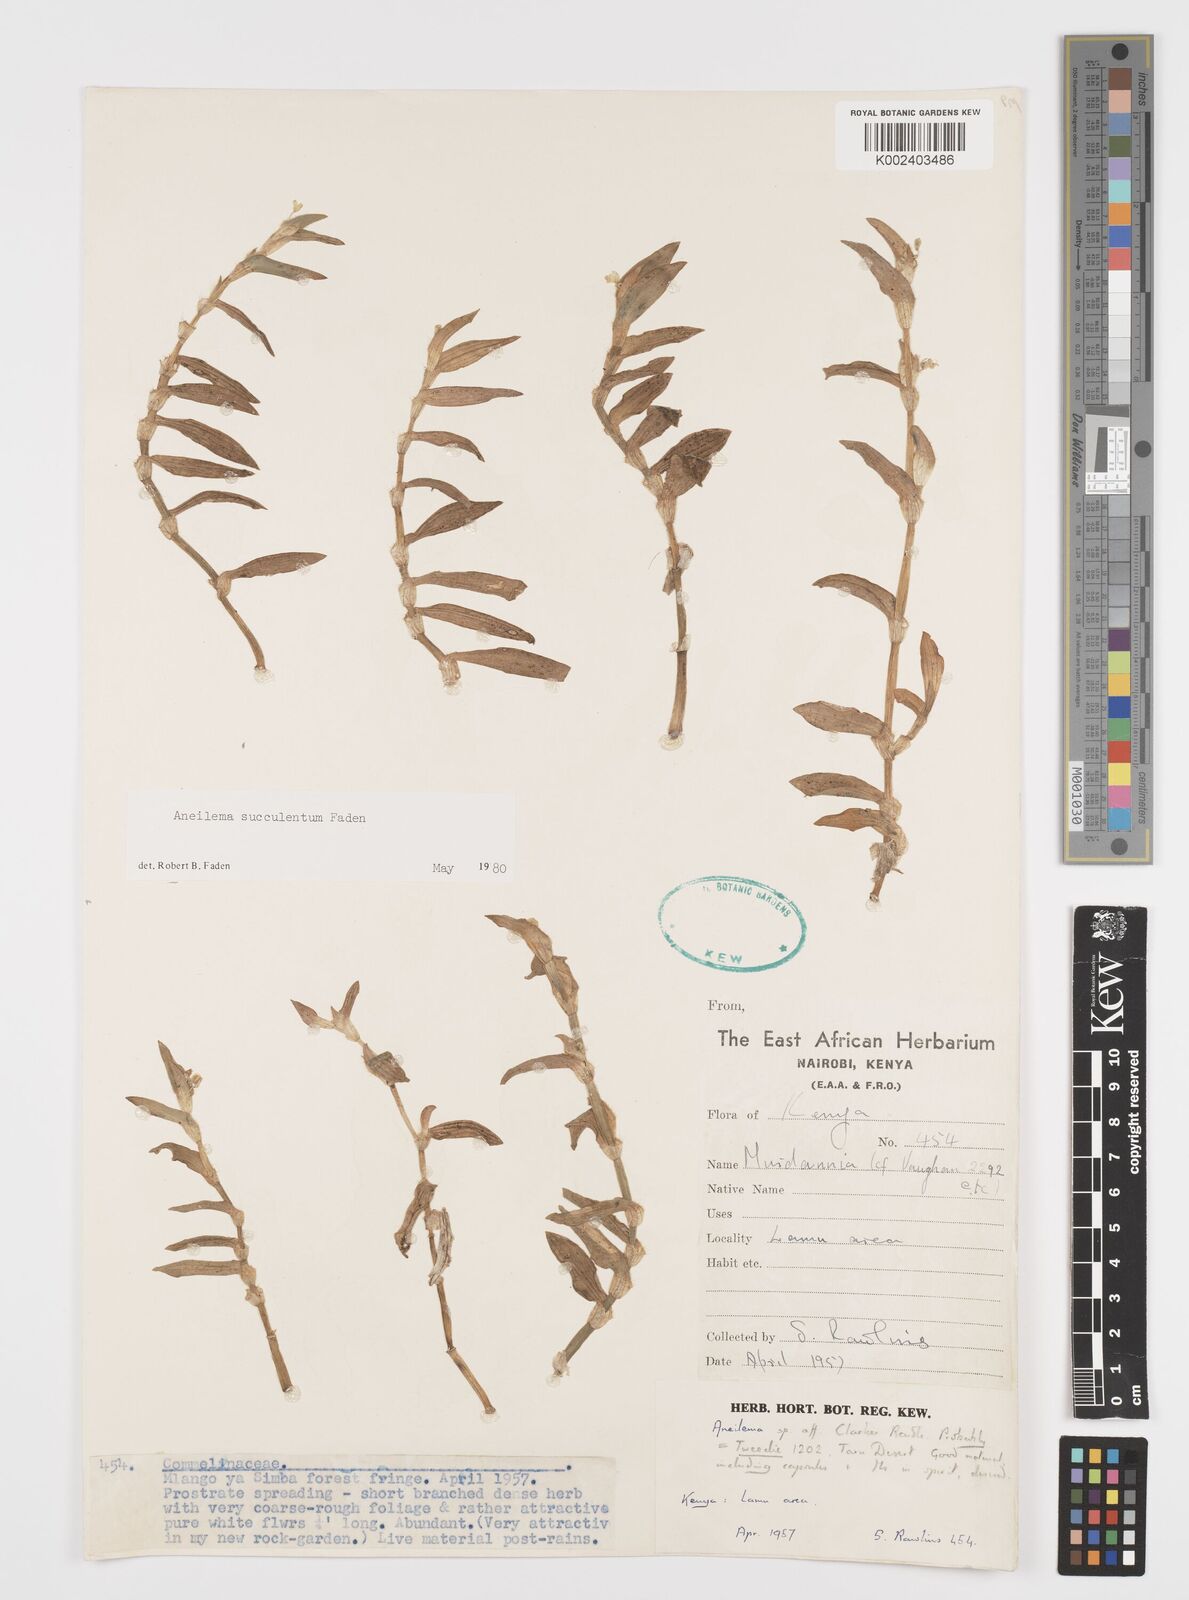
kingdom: Plantae
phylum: Tracheophyta
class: Liliopsida
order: Commelinales
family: Commelinaceae
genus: Aneilema
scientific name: Aneilema succulentum
